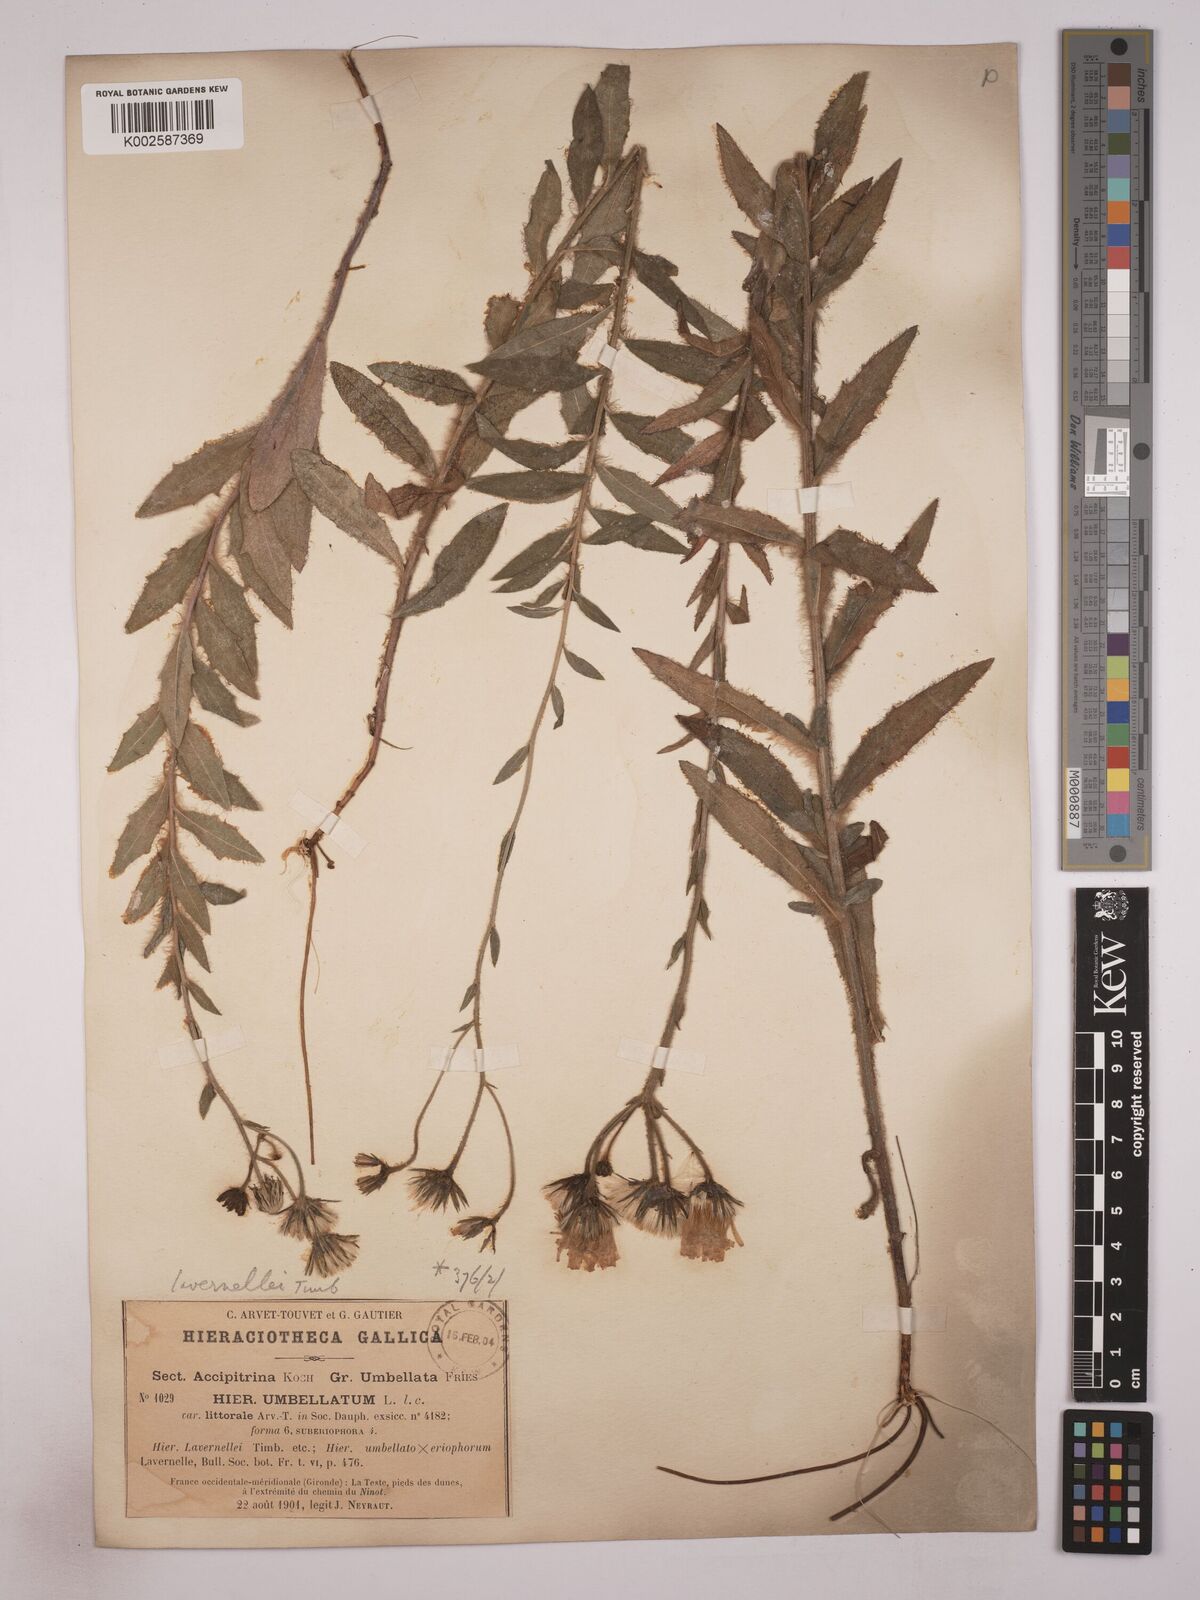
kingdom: Plantae
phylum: Tracheophyta
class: Magnoliopsida
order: Asterales
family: Asteraceae
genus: Hieracium
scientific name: Hieracium
